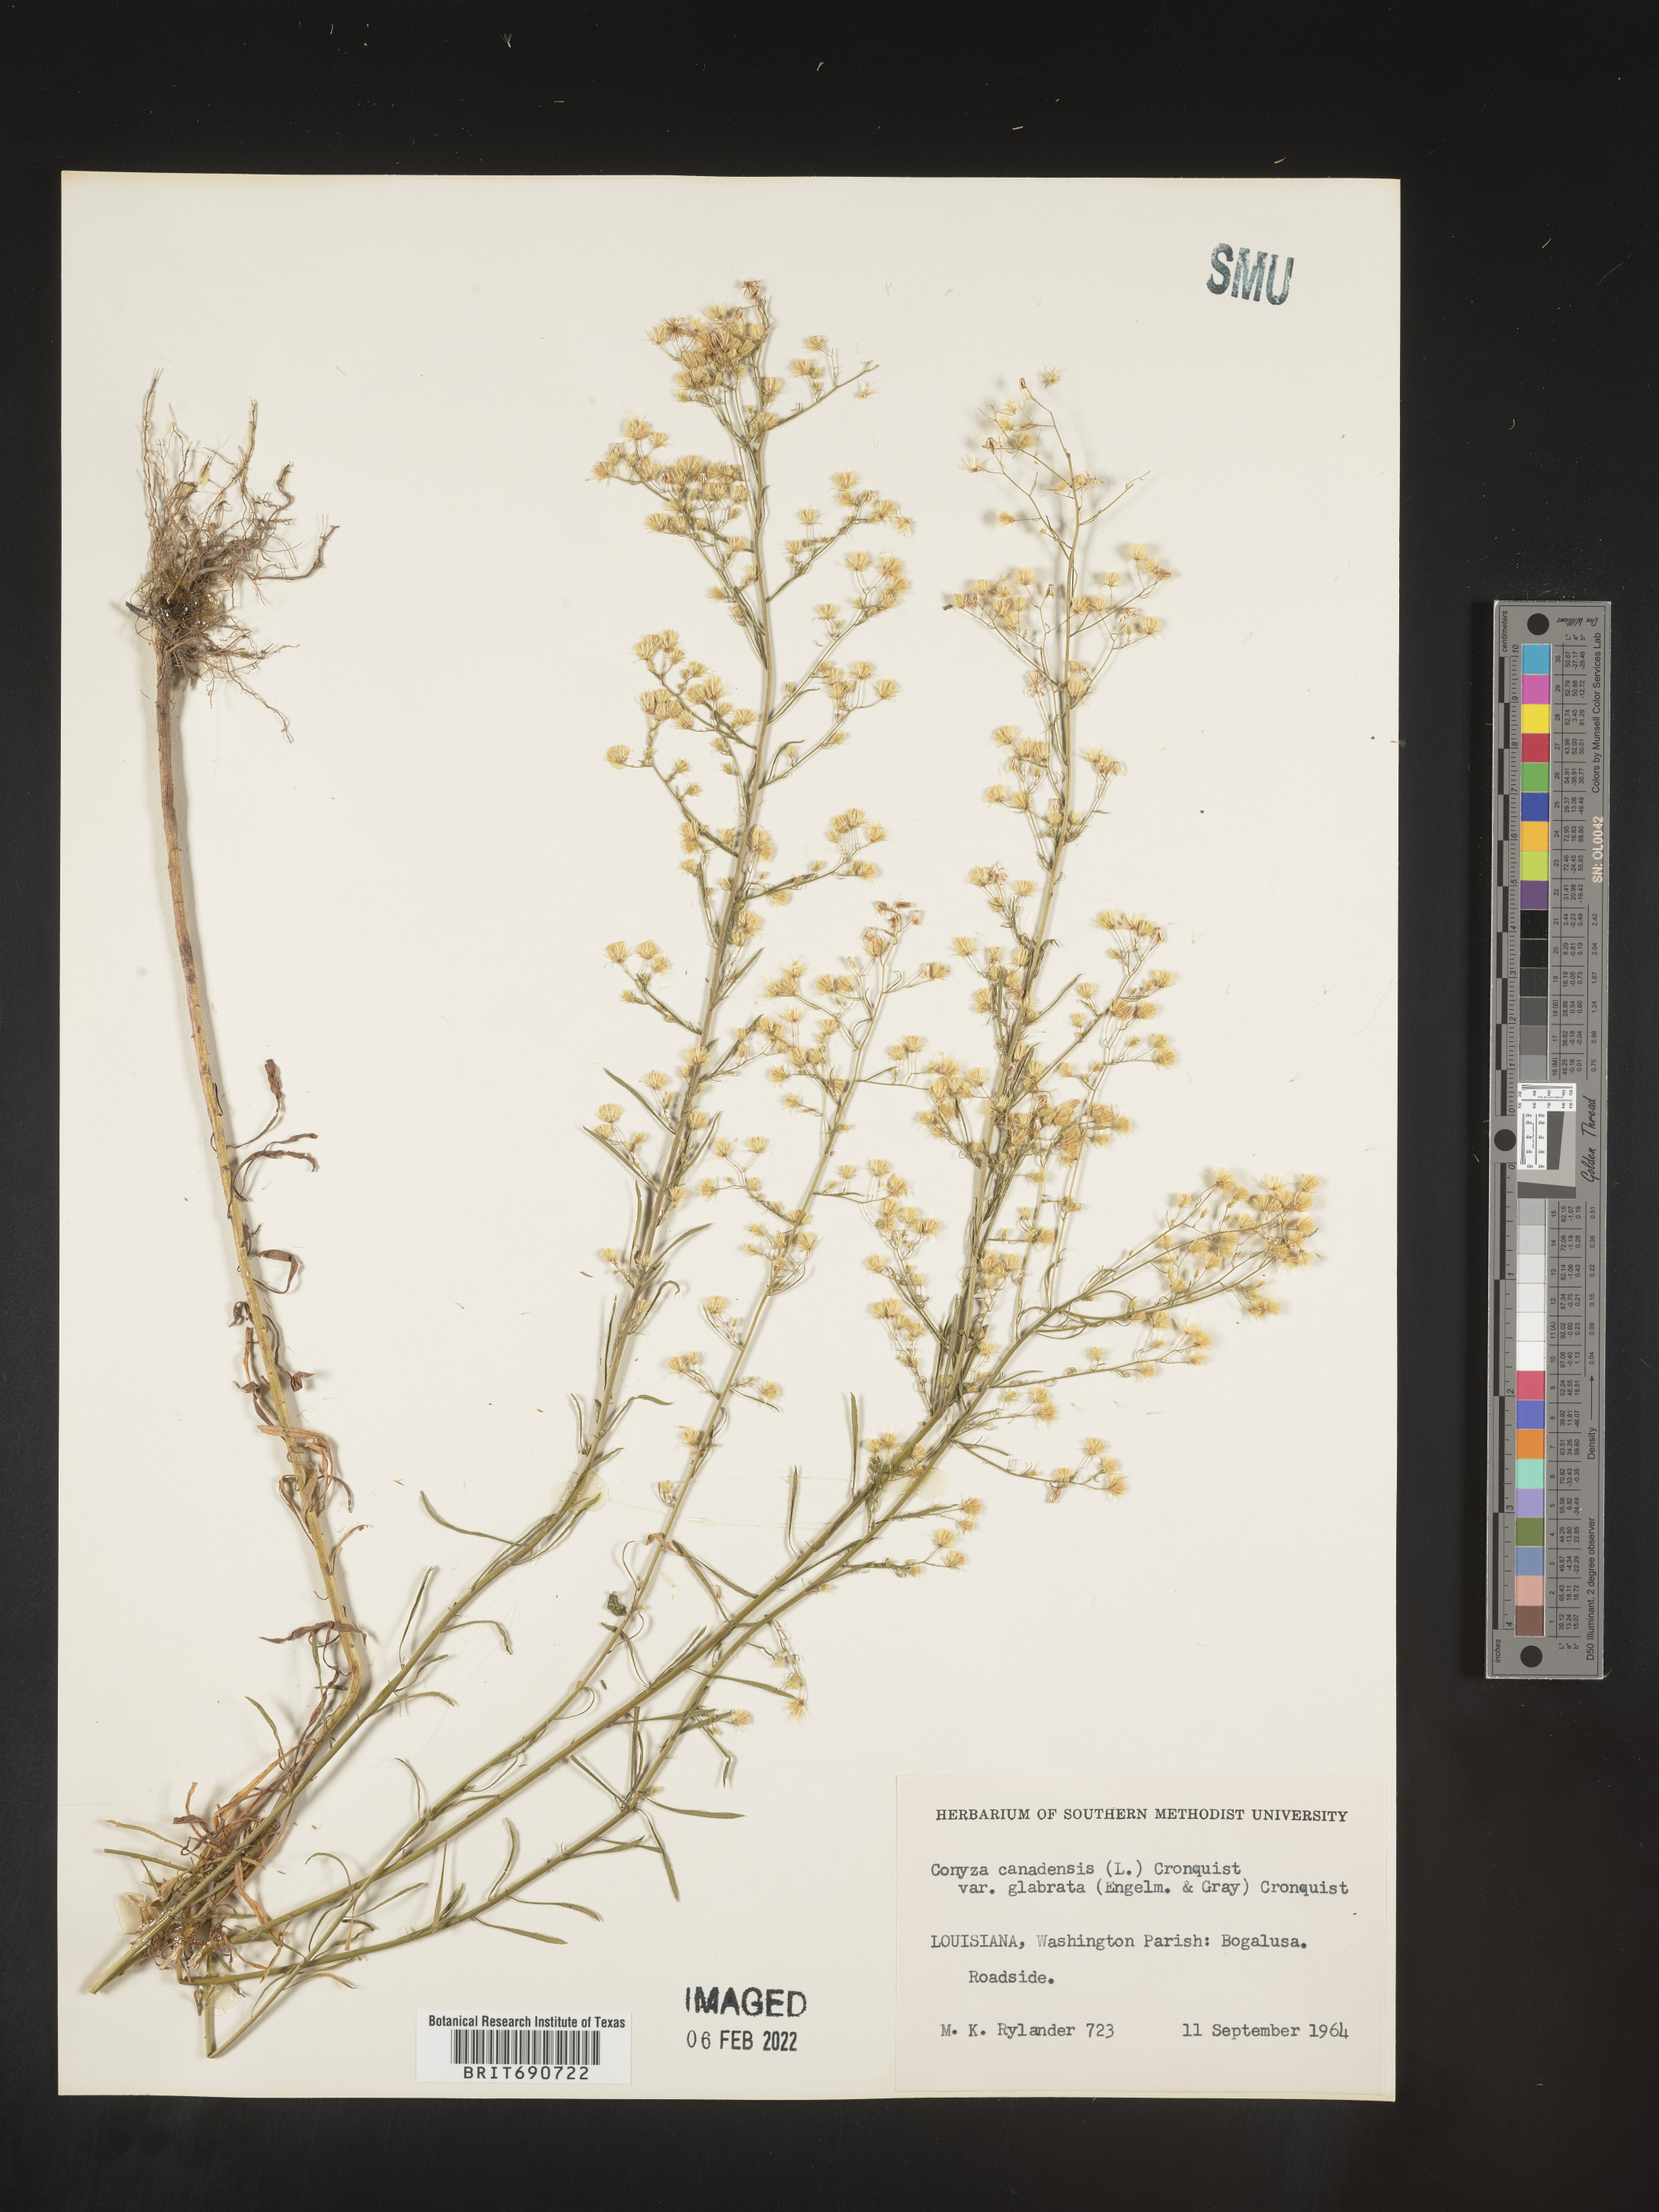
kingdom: Plantae
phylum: Tracheophyta
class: Magnoliopsida
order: Asterales
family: Asteraceae
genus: Erigeron
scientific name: Erigeron canadensis
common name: Canadian fleabane
